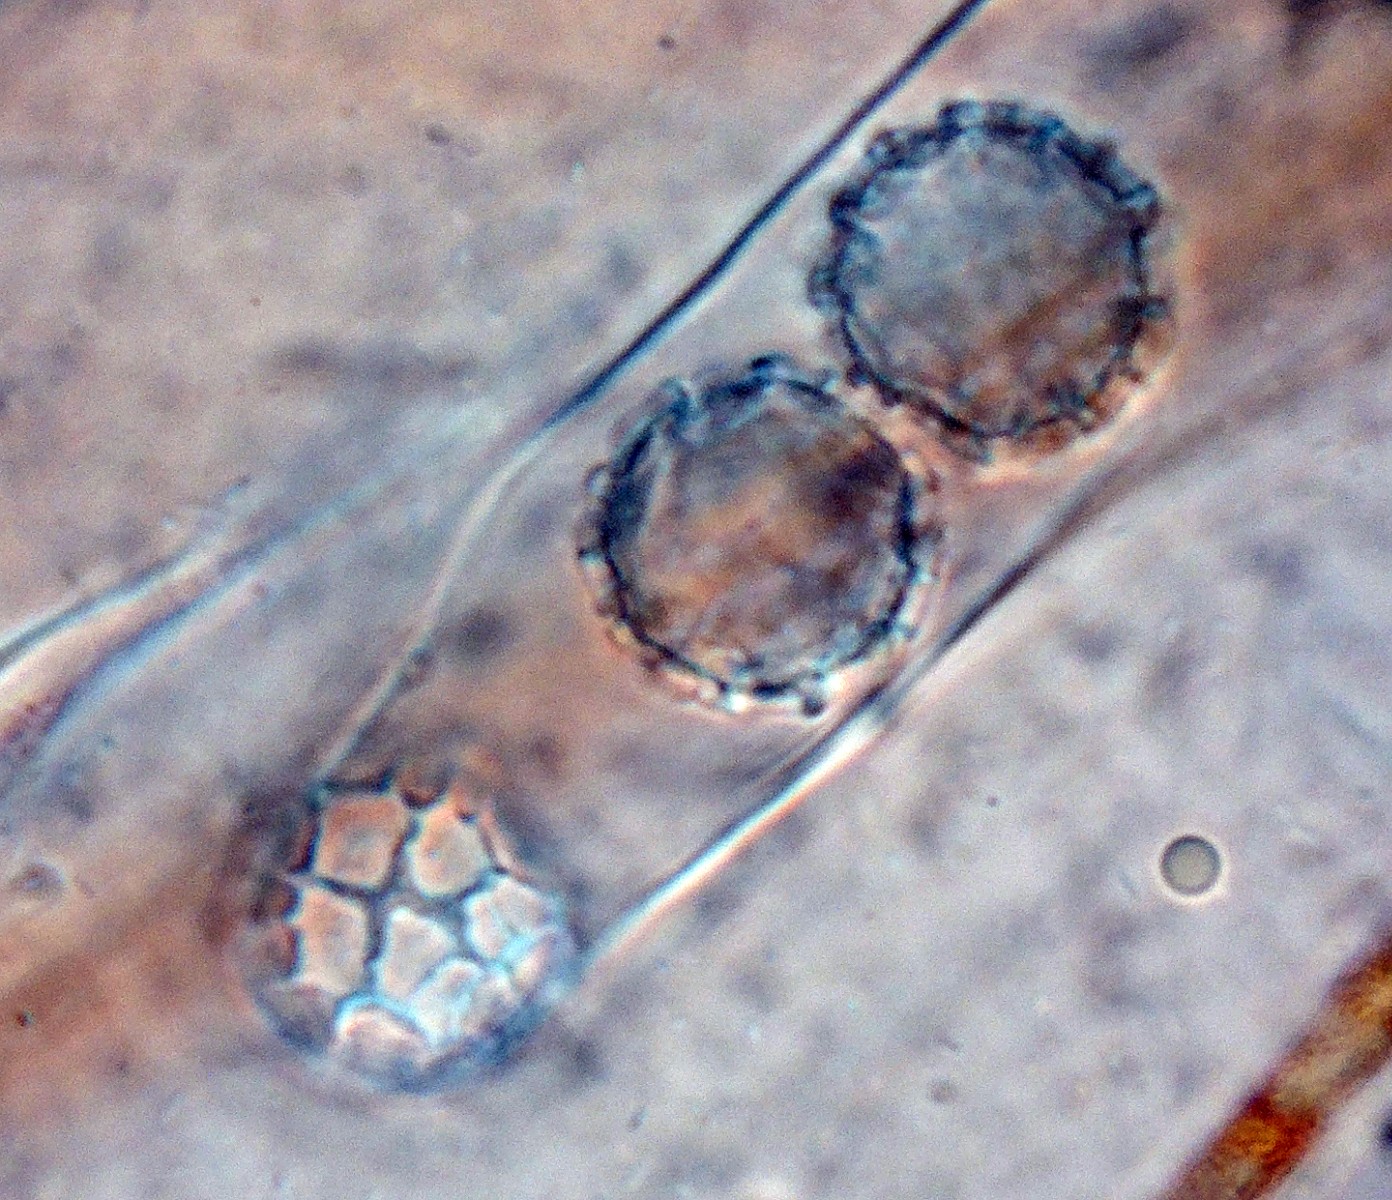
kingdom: Fungi
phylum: Ascomycota
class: Pezizomycetes
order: Pezizales
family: Pyronemataceae
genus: Lamprospora
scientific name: Lamprospora miniata
